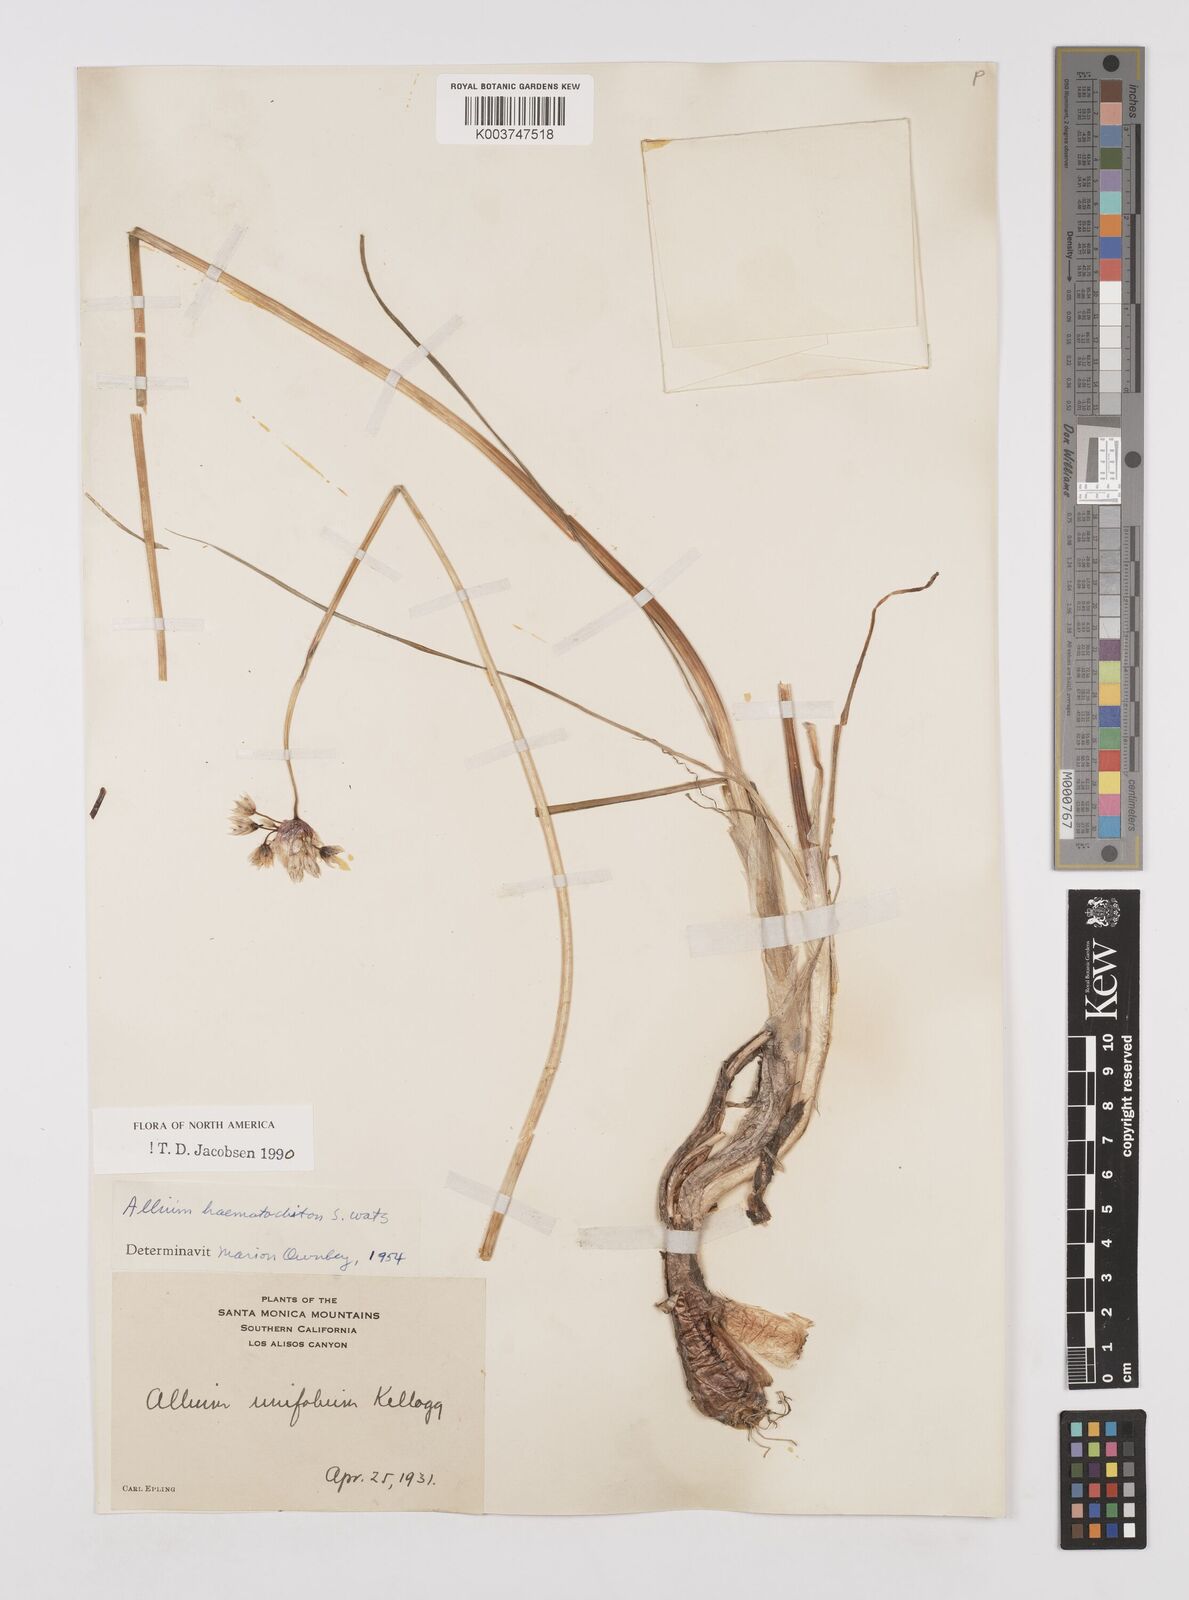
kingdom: Plantae
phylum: Tracheophyta
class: Liliopsida
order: Asparagales
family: Amaryllidaceae
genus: Allium
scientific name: Allium haematochiton
